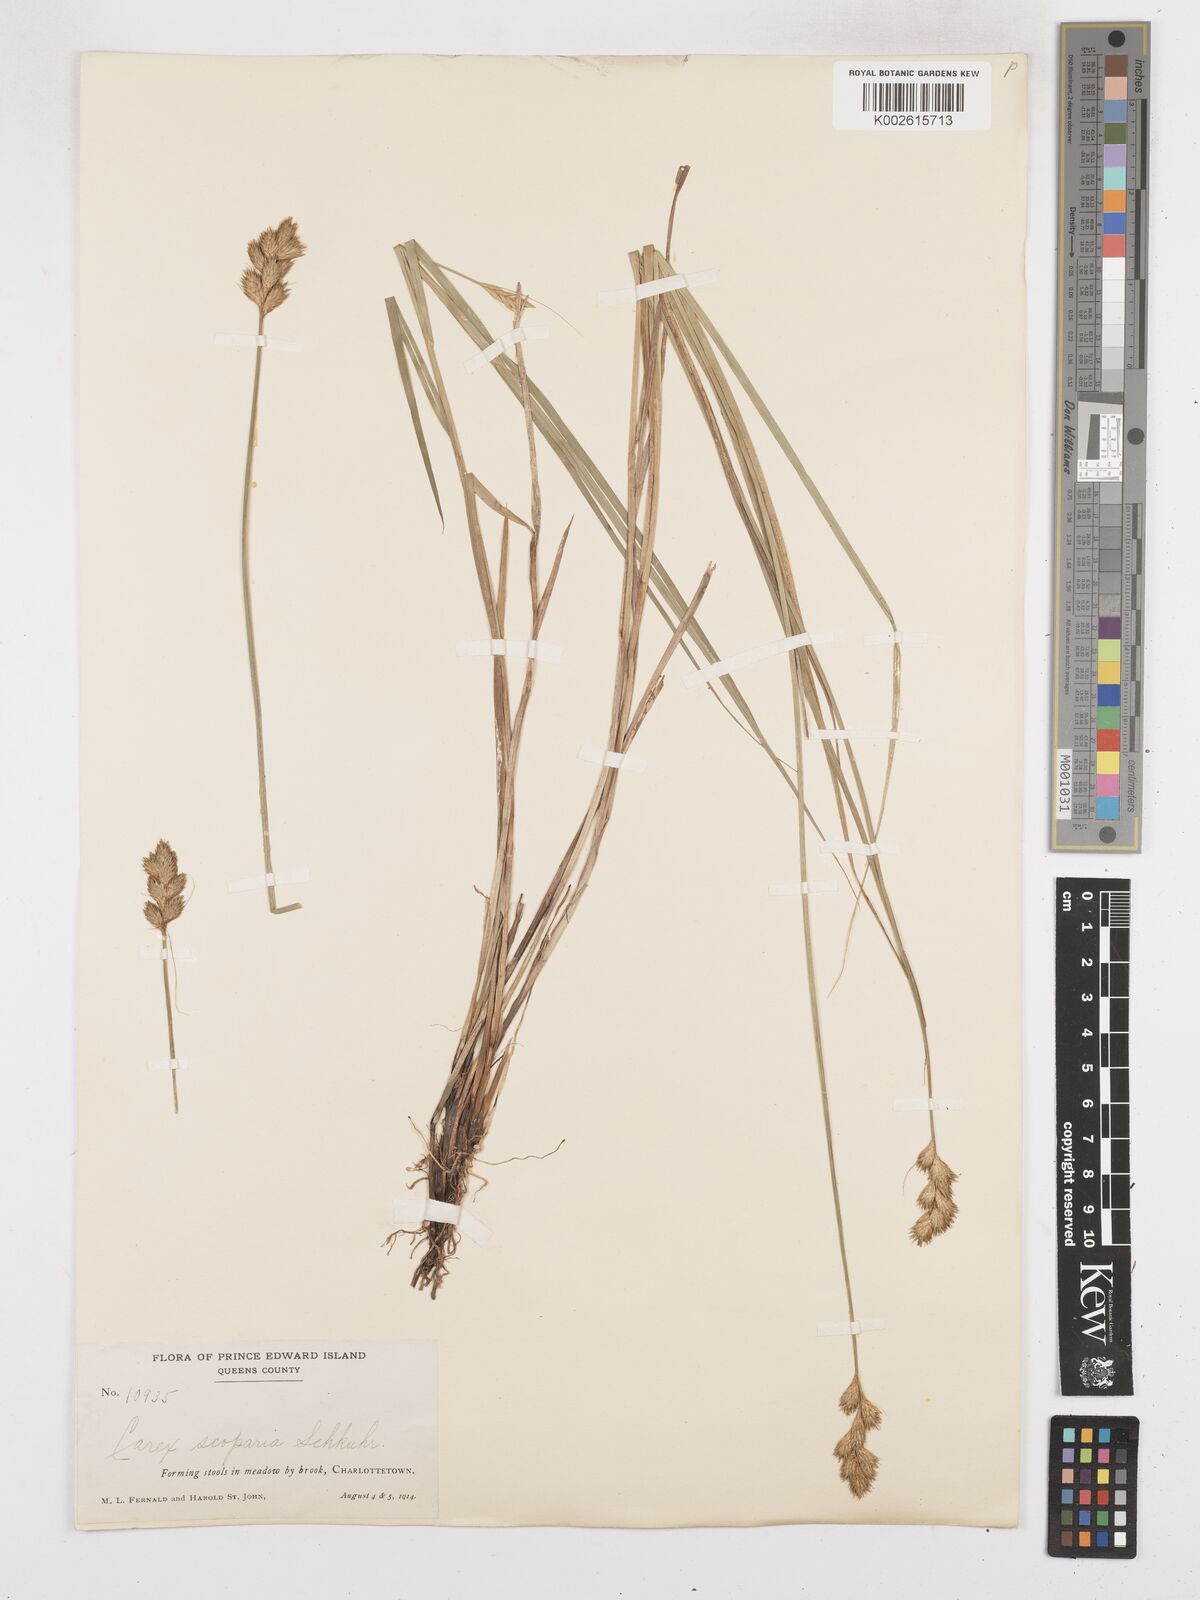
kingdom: Plantae
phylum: Tracheophyta
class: Liliopsida
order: Poales
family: Cyperaceae
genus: Carex
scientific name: Carex leporina
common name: Oval sedge
